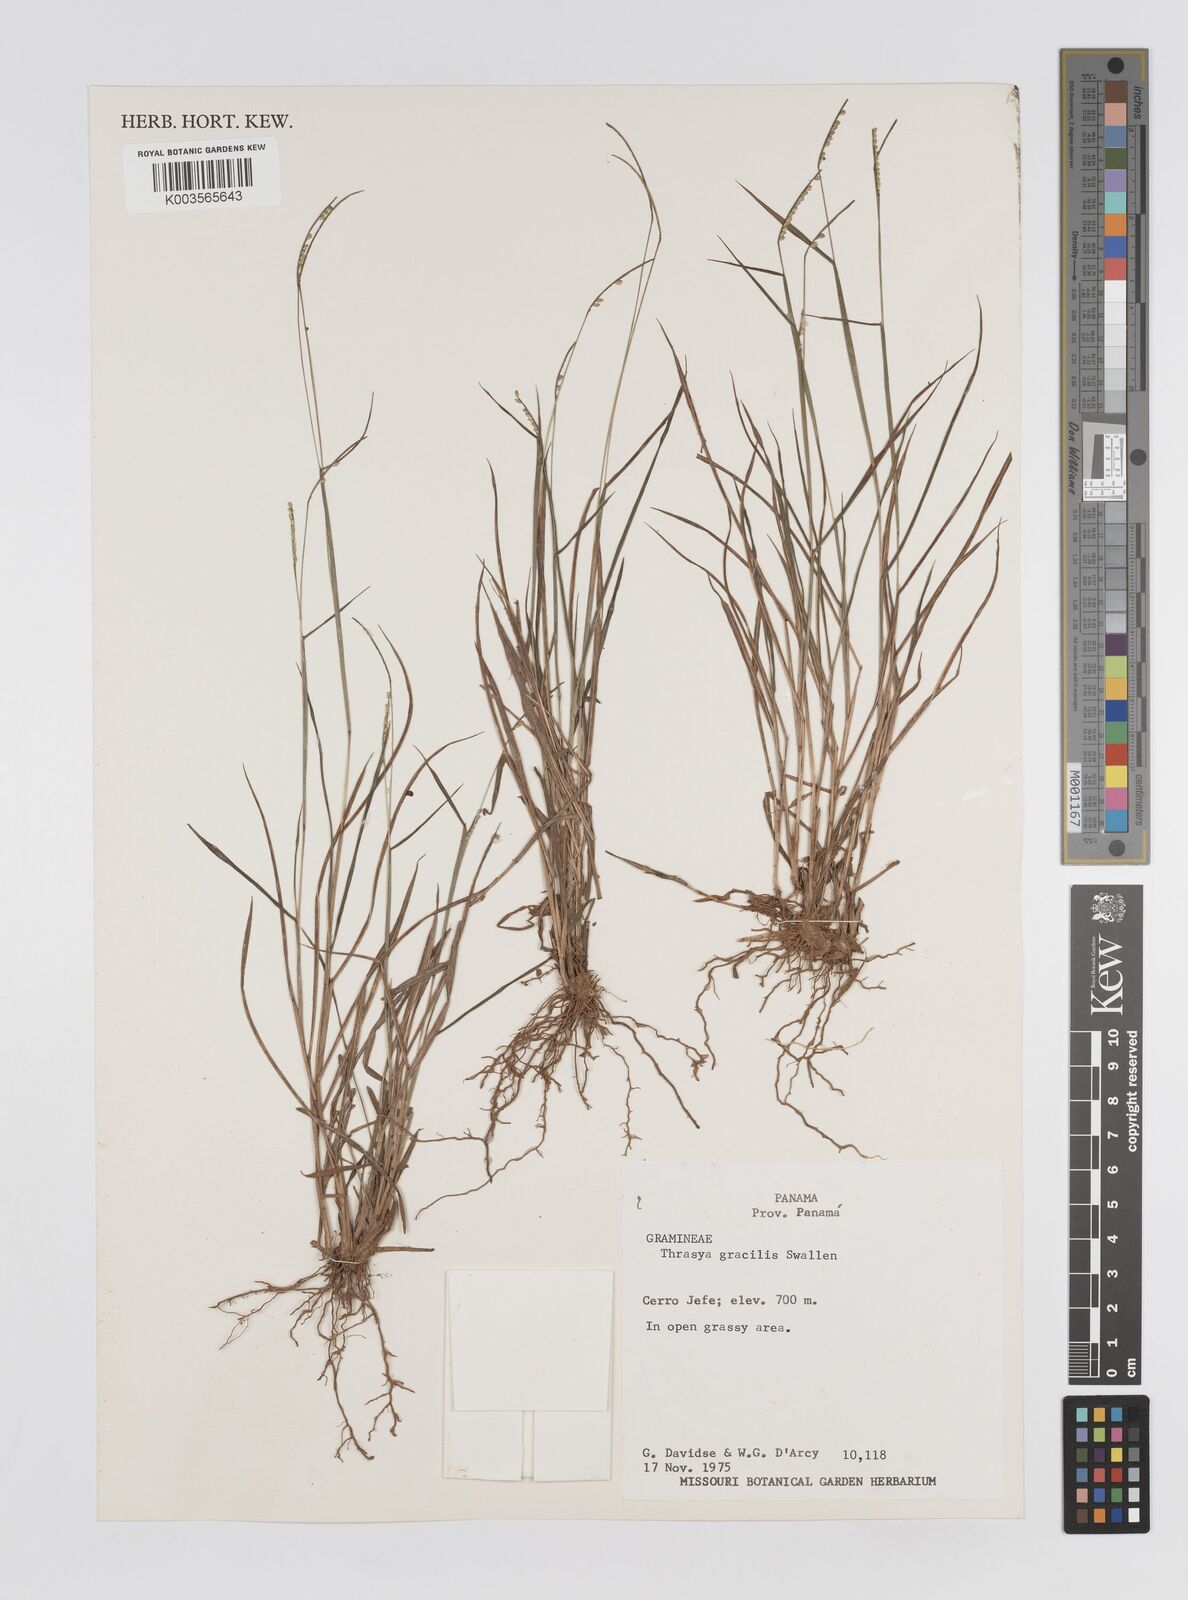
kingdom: Plantae
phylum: Tracheophyta
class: Liliopsida
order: Poales
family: Poaceae
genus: Paspalum
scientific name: Paspalum campylostachyum
